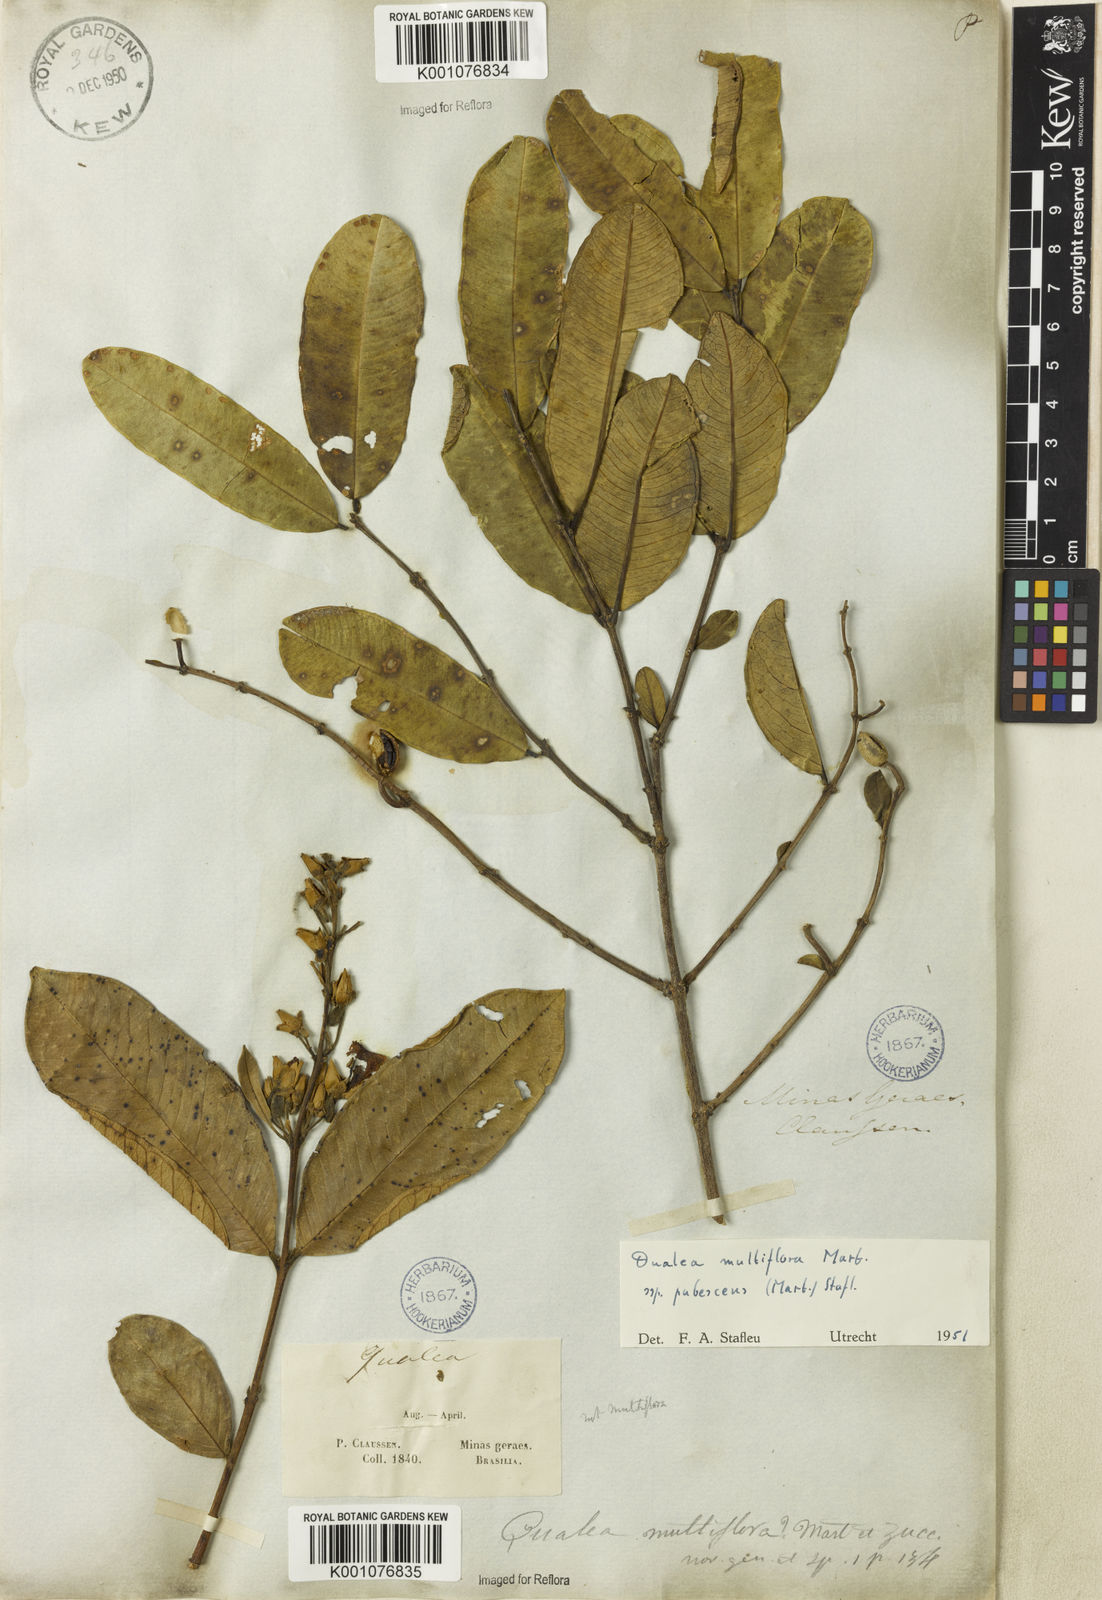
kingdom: Plantae
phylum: Tracheophyta
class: Magnoliopsida
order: Myrtales
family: Vochysiaceae
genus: Qualea
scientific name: Qualea multiflora
